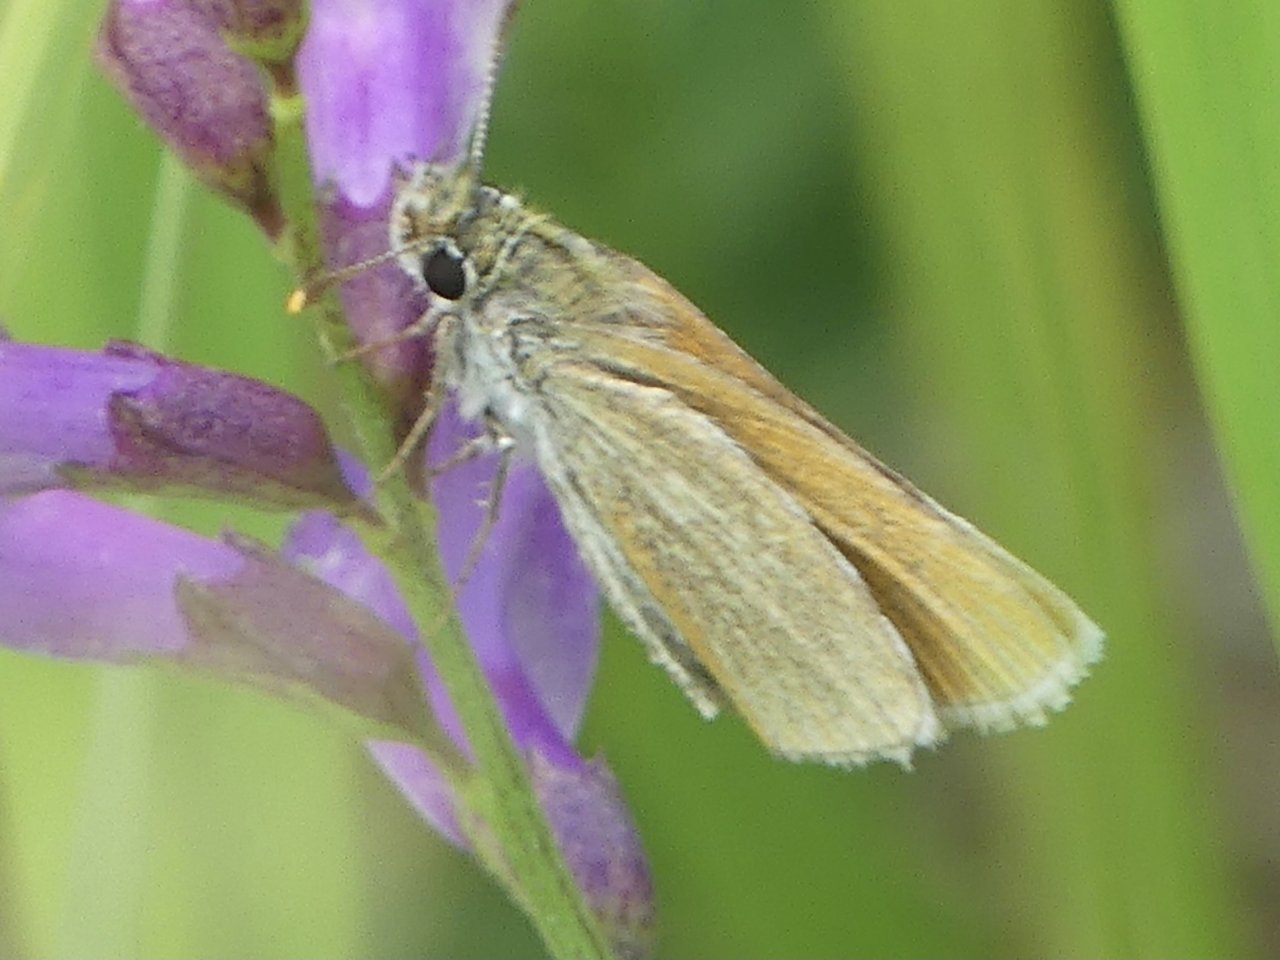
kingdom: Animalia
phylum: Arthropoda
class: Insecta
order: Lepidoptera
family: Hesperiidae
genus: Oarisma
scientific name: Oarisma garita
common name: Garita Skipperling
